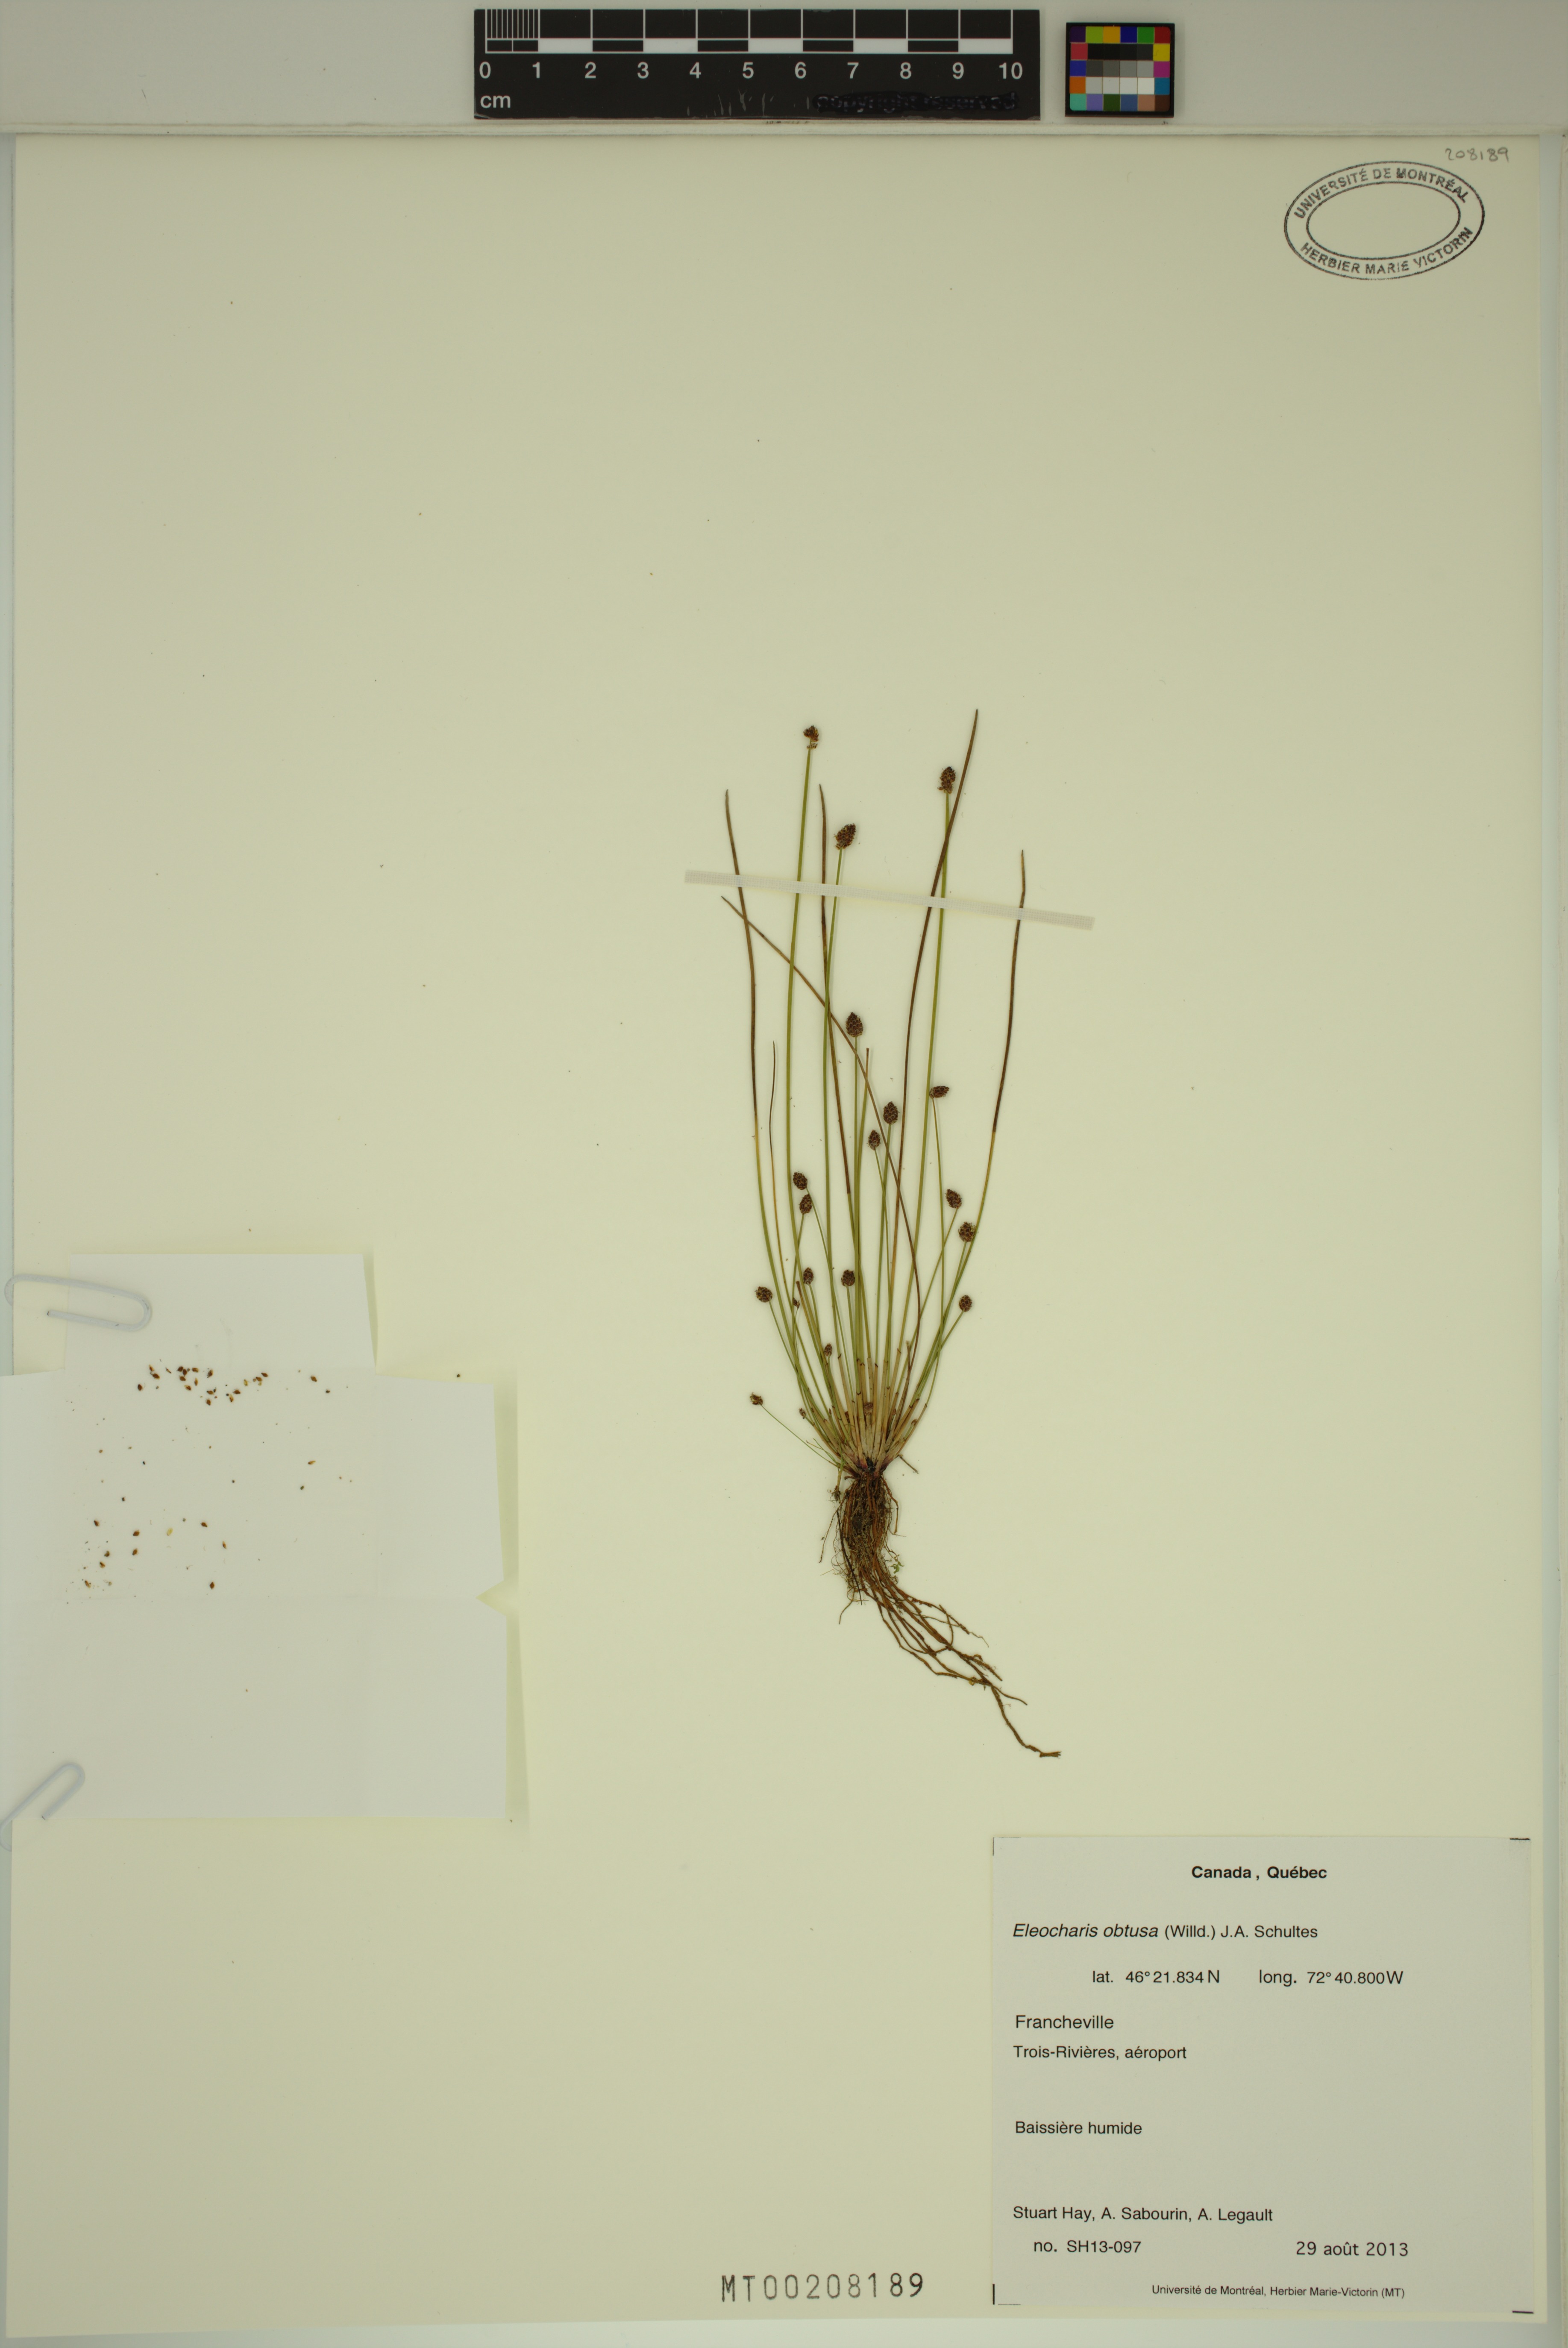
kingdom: Plantae
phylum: Tracheophyta
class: Liliopsida
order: Poales
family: Cyperaceae
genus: Eleocharis
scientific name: Eleocharis obtusa
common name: Blunt spikerush
